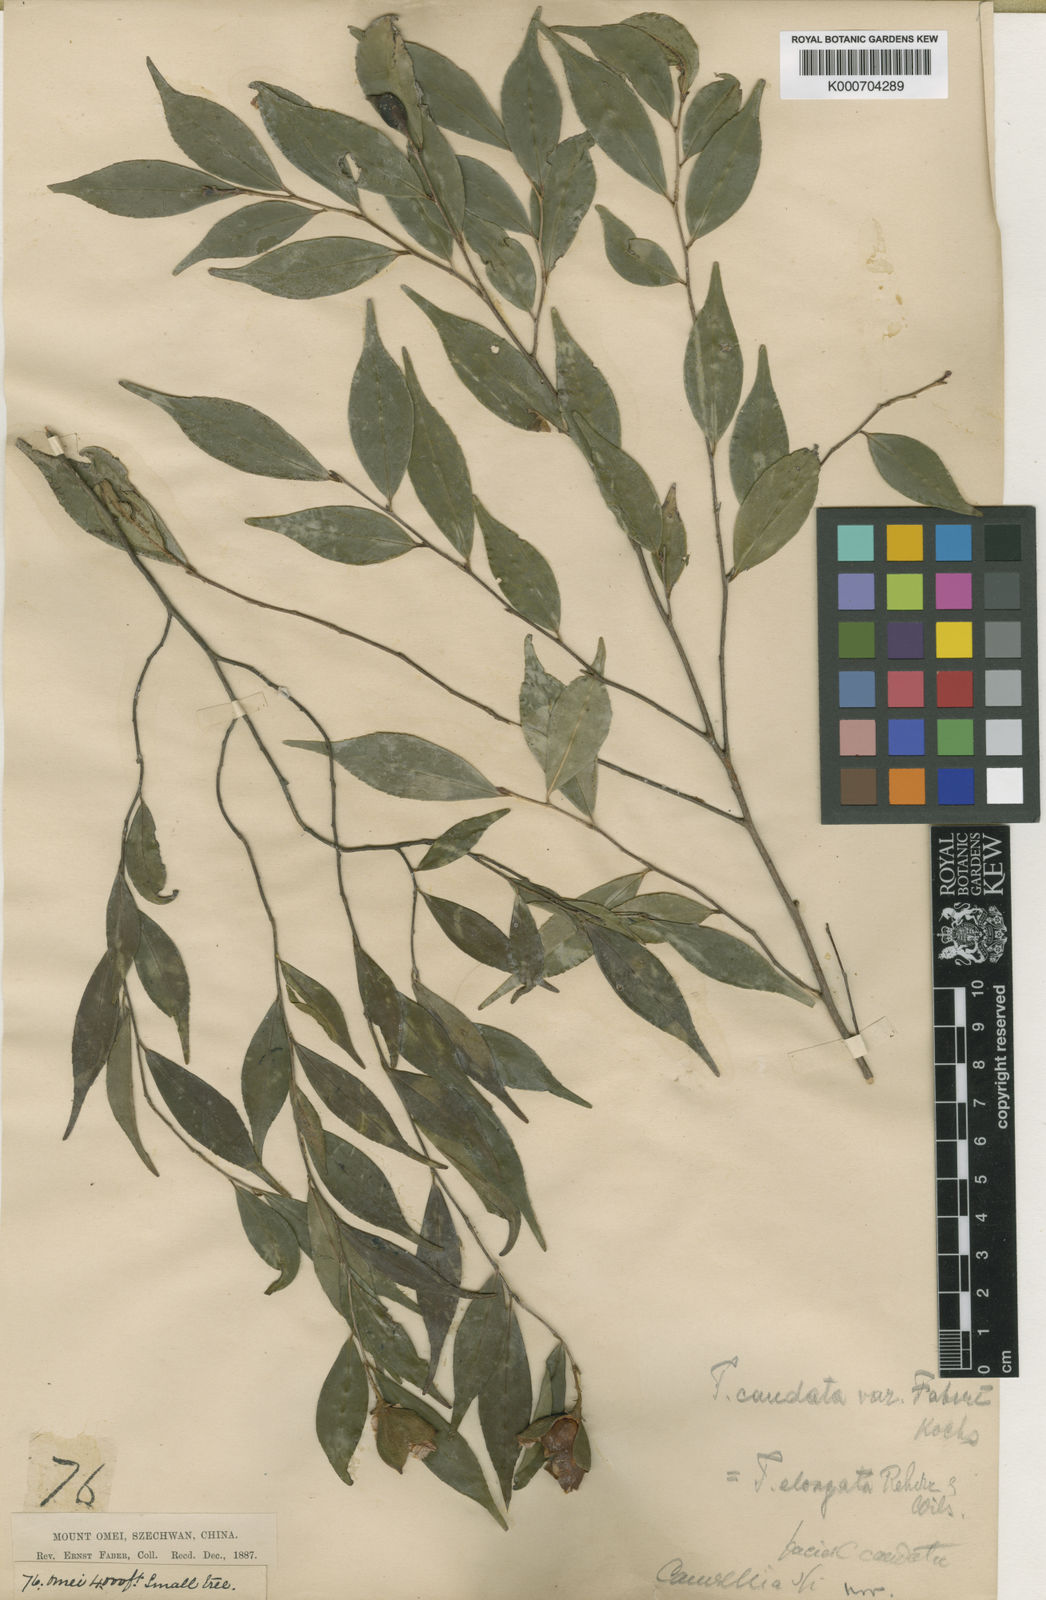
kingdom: Plantae
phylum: Tracheophyta
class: Magnoliopsida
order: Ericales
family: Theaceae
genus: Camellia
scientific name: Camellia caudata
